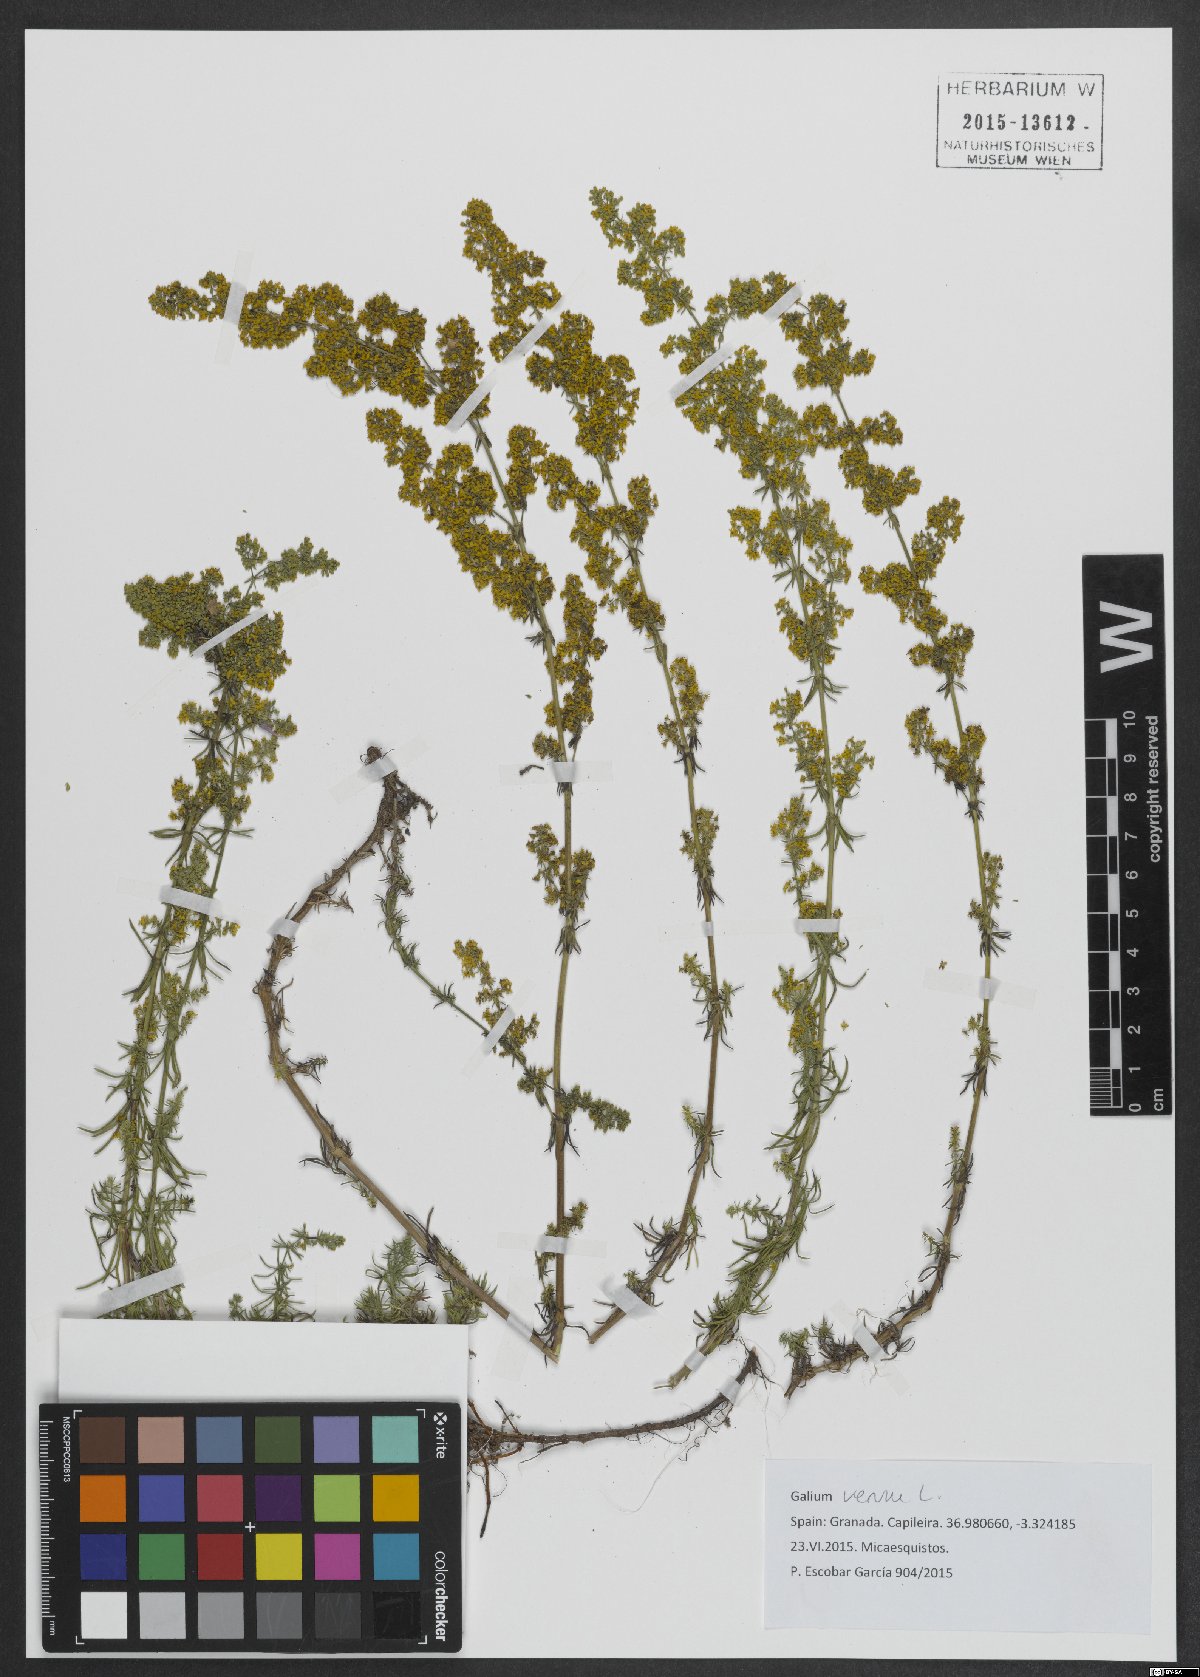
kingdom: Plantae
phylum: Tracheophyta
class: Magnoliopsida
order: Gentianales
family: Rubiaceae
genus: Galium
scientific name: Galium verum
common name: Lady's bedstraw
